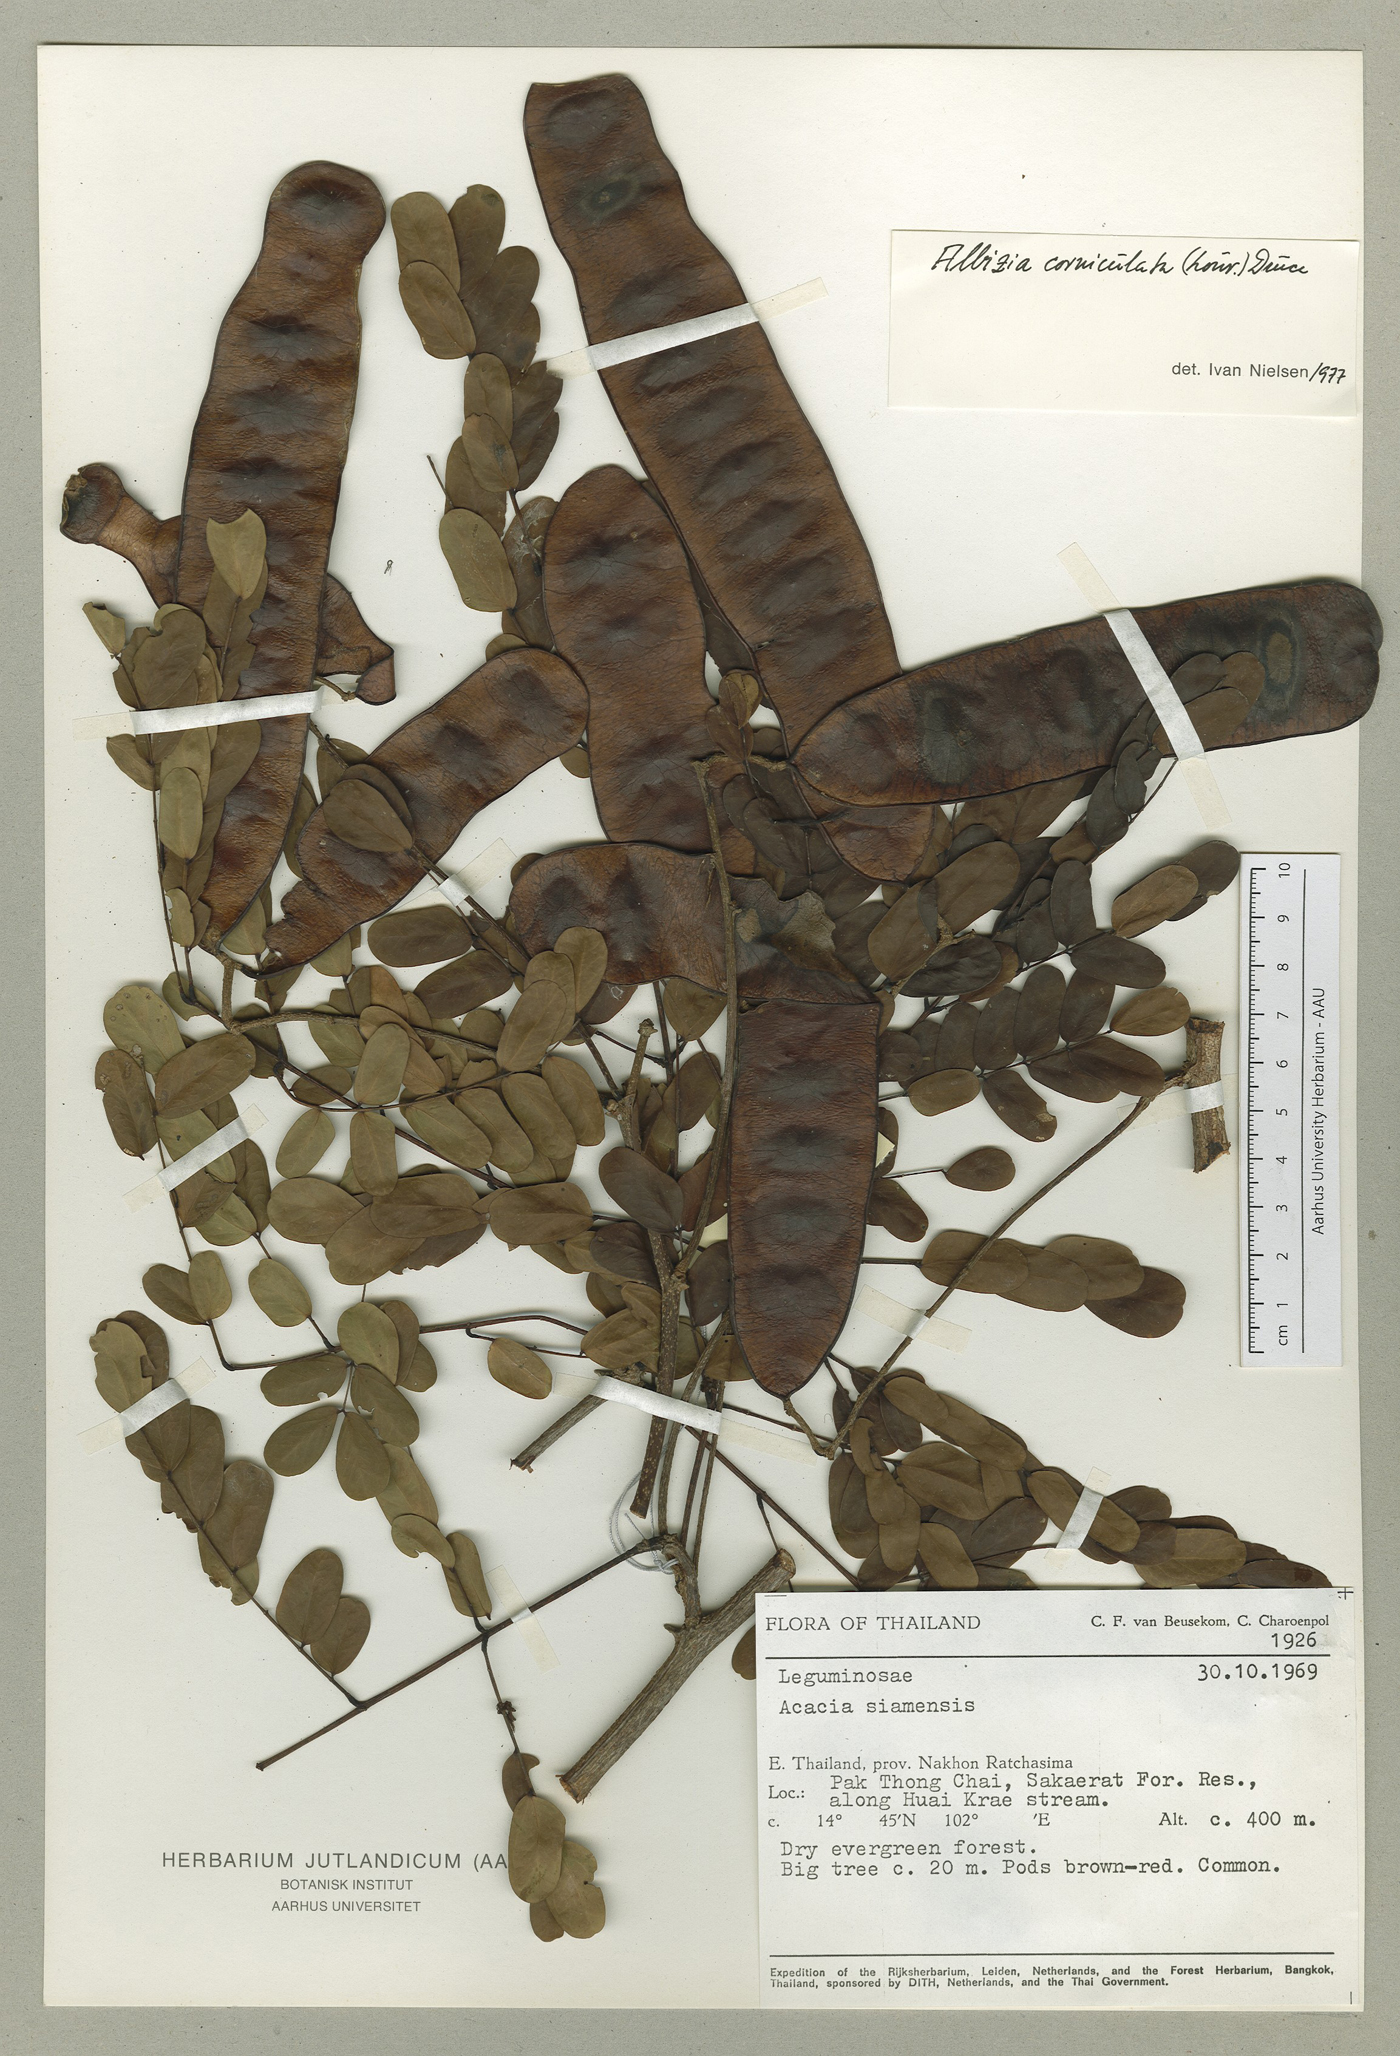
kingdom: Plantae
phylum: Tracheophyta
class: Magnoliopsida
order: Fabales
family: Fabaceae
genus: Albizia
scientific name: Albizia corniculata
